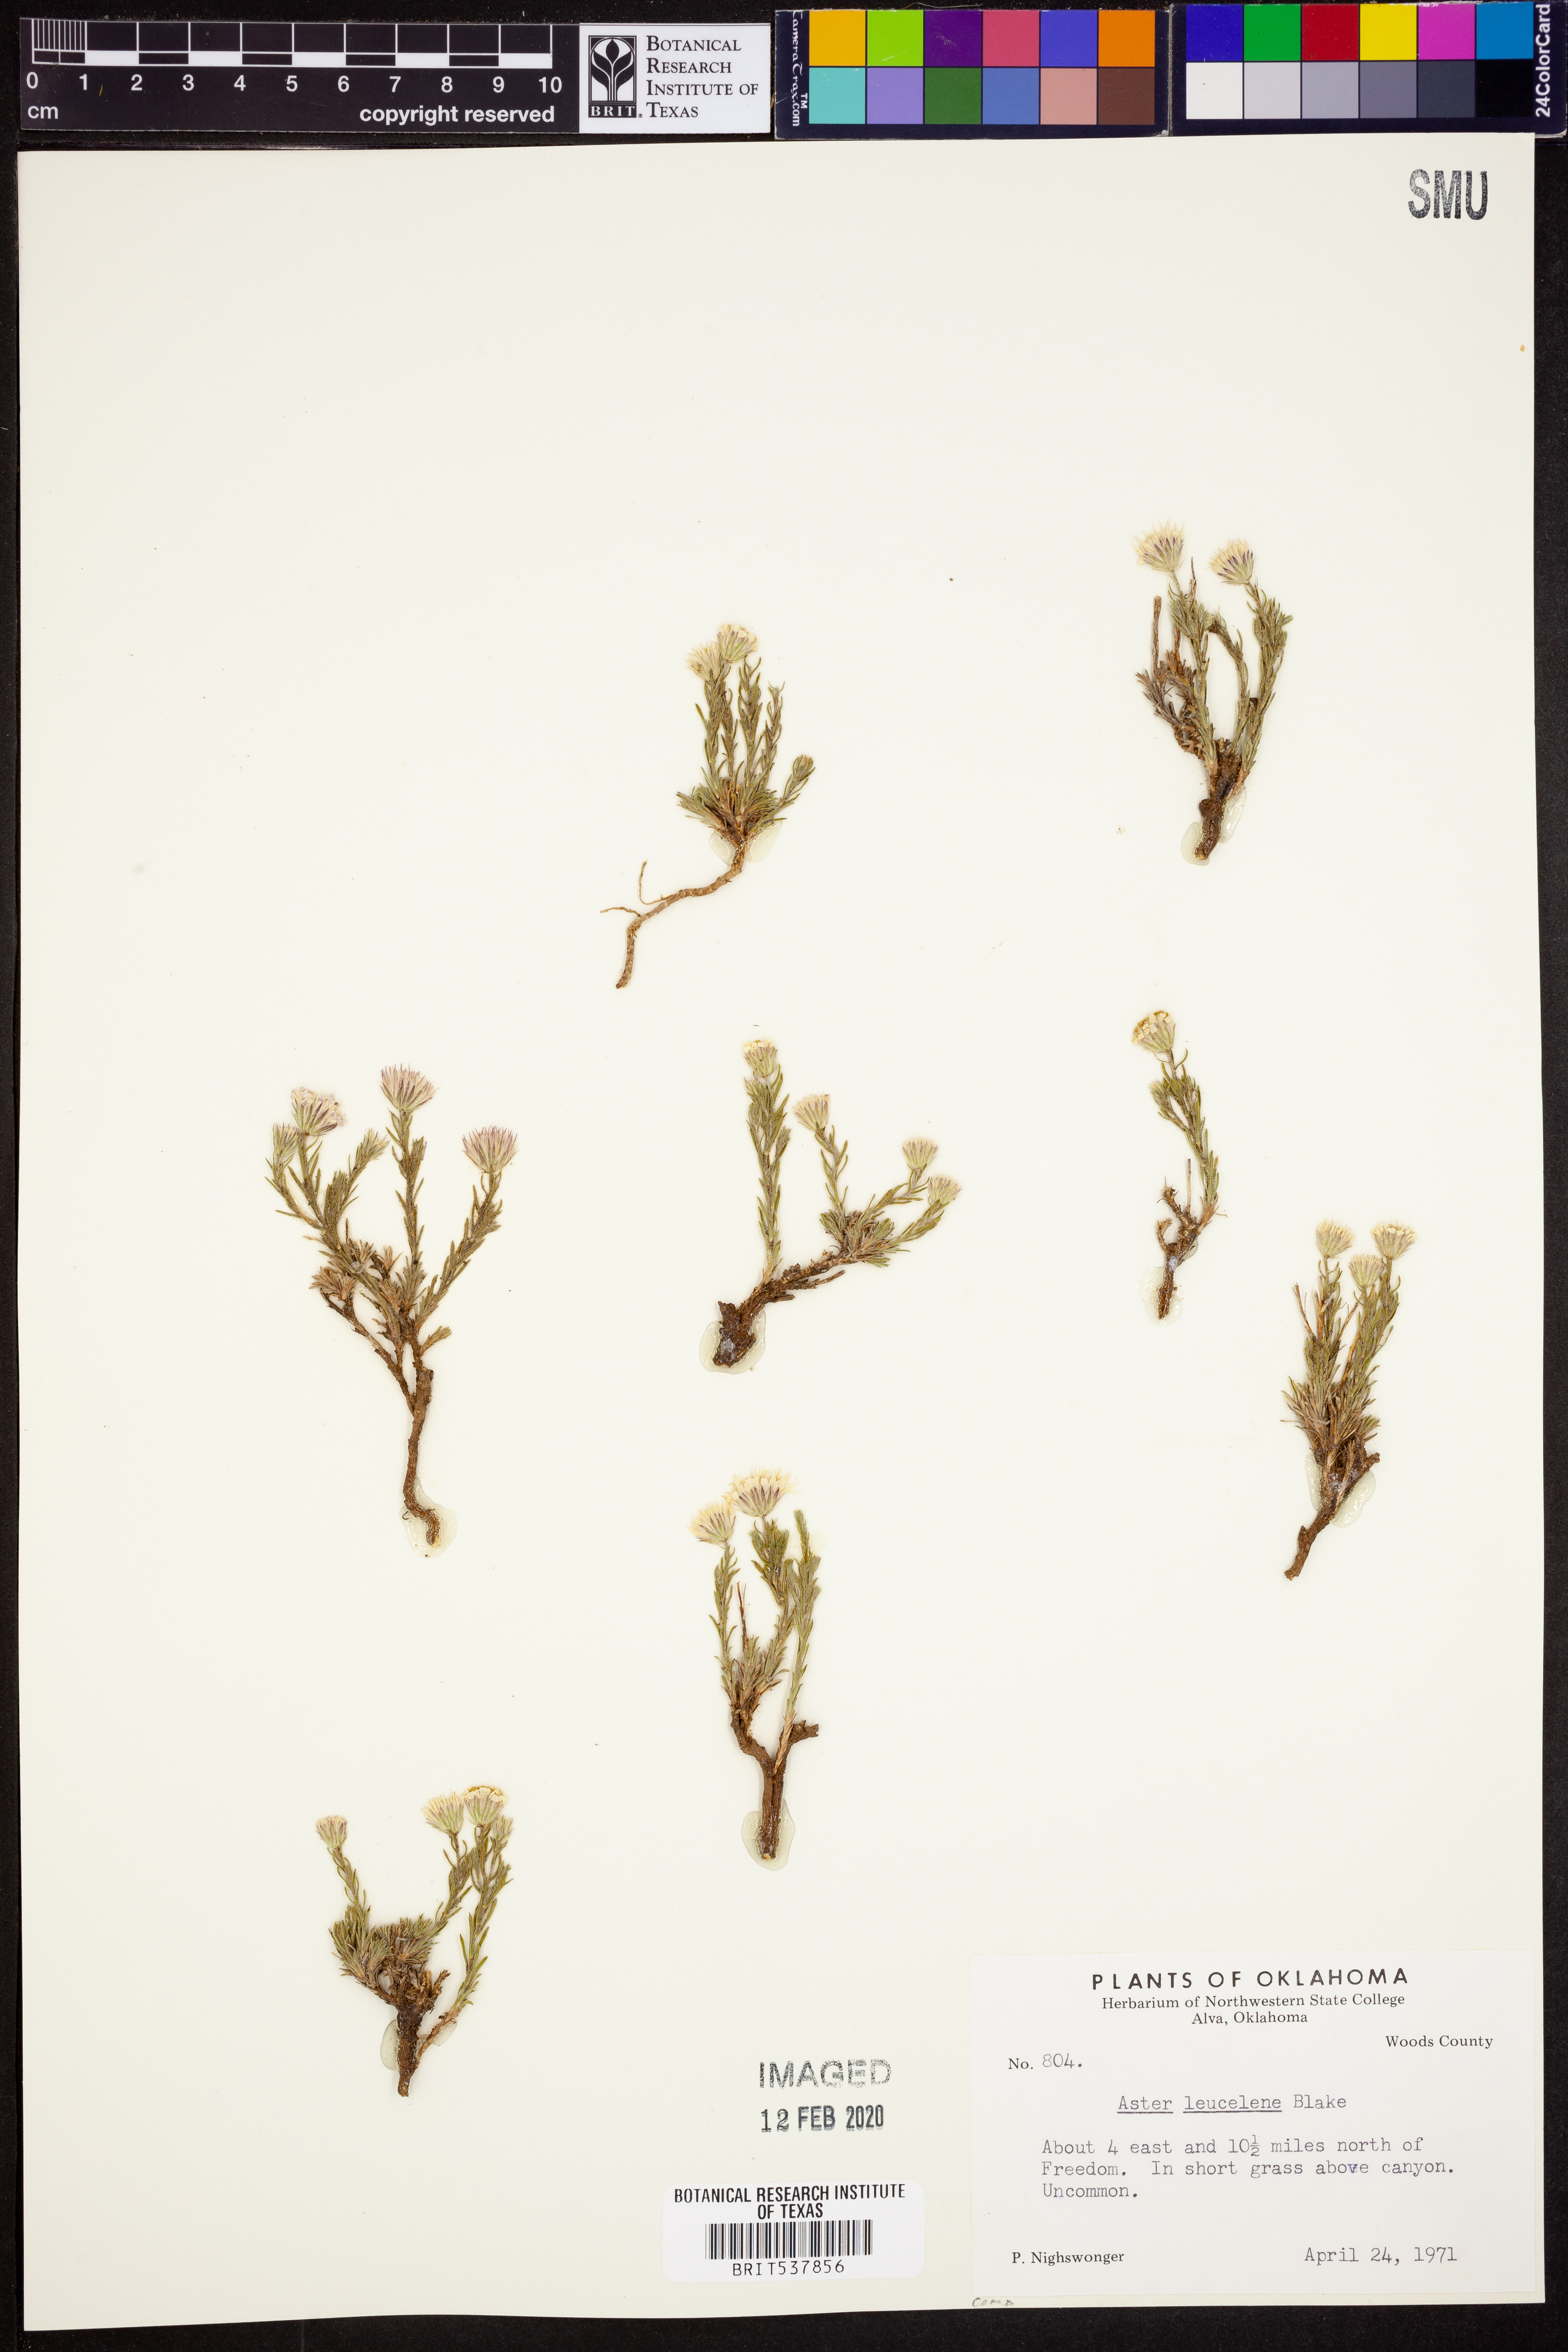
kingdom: Plantae
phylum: Tracheophyta
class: Magnoliopsida
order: Asterales
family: Asteraceae
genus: Chaetopappa
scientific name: Chaetopappa ericoides
